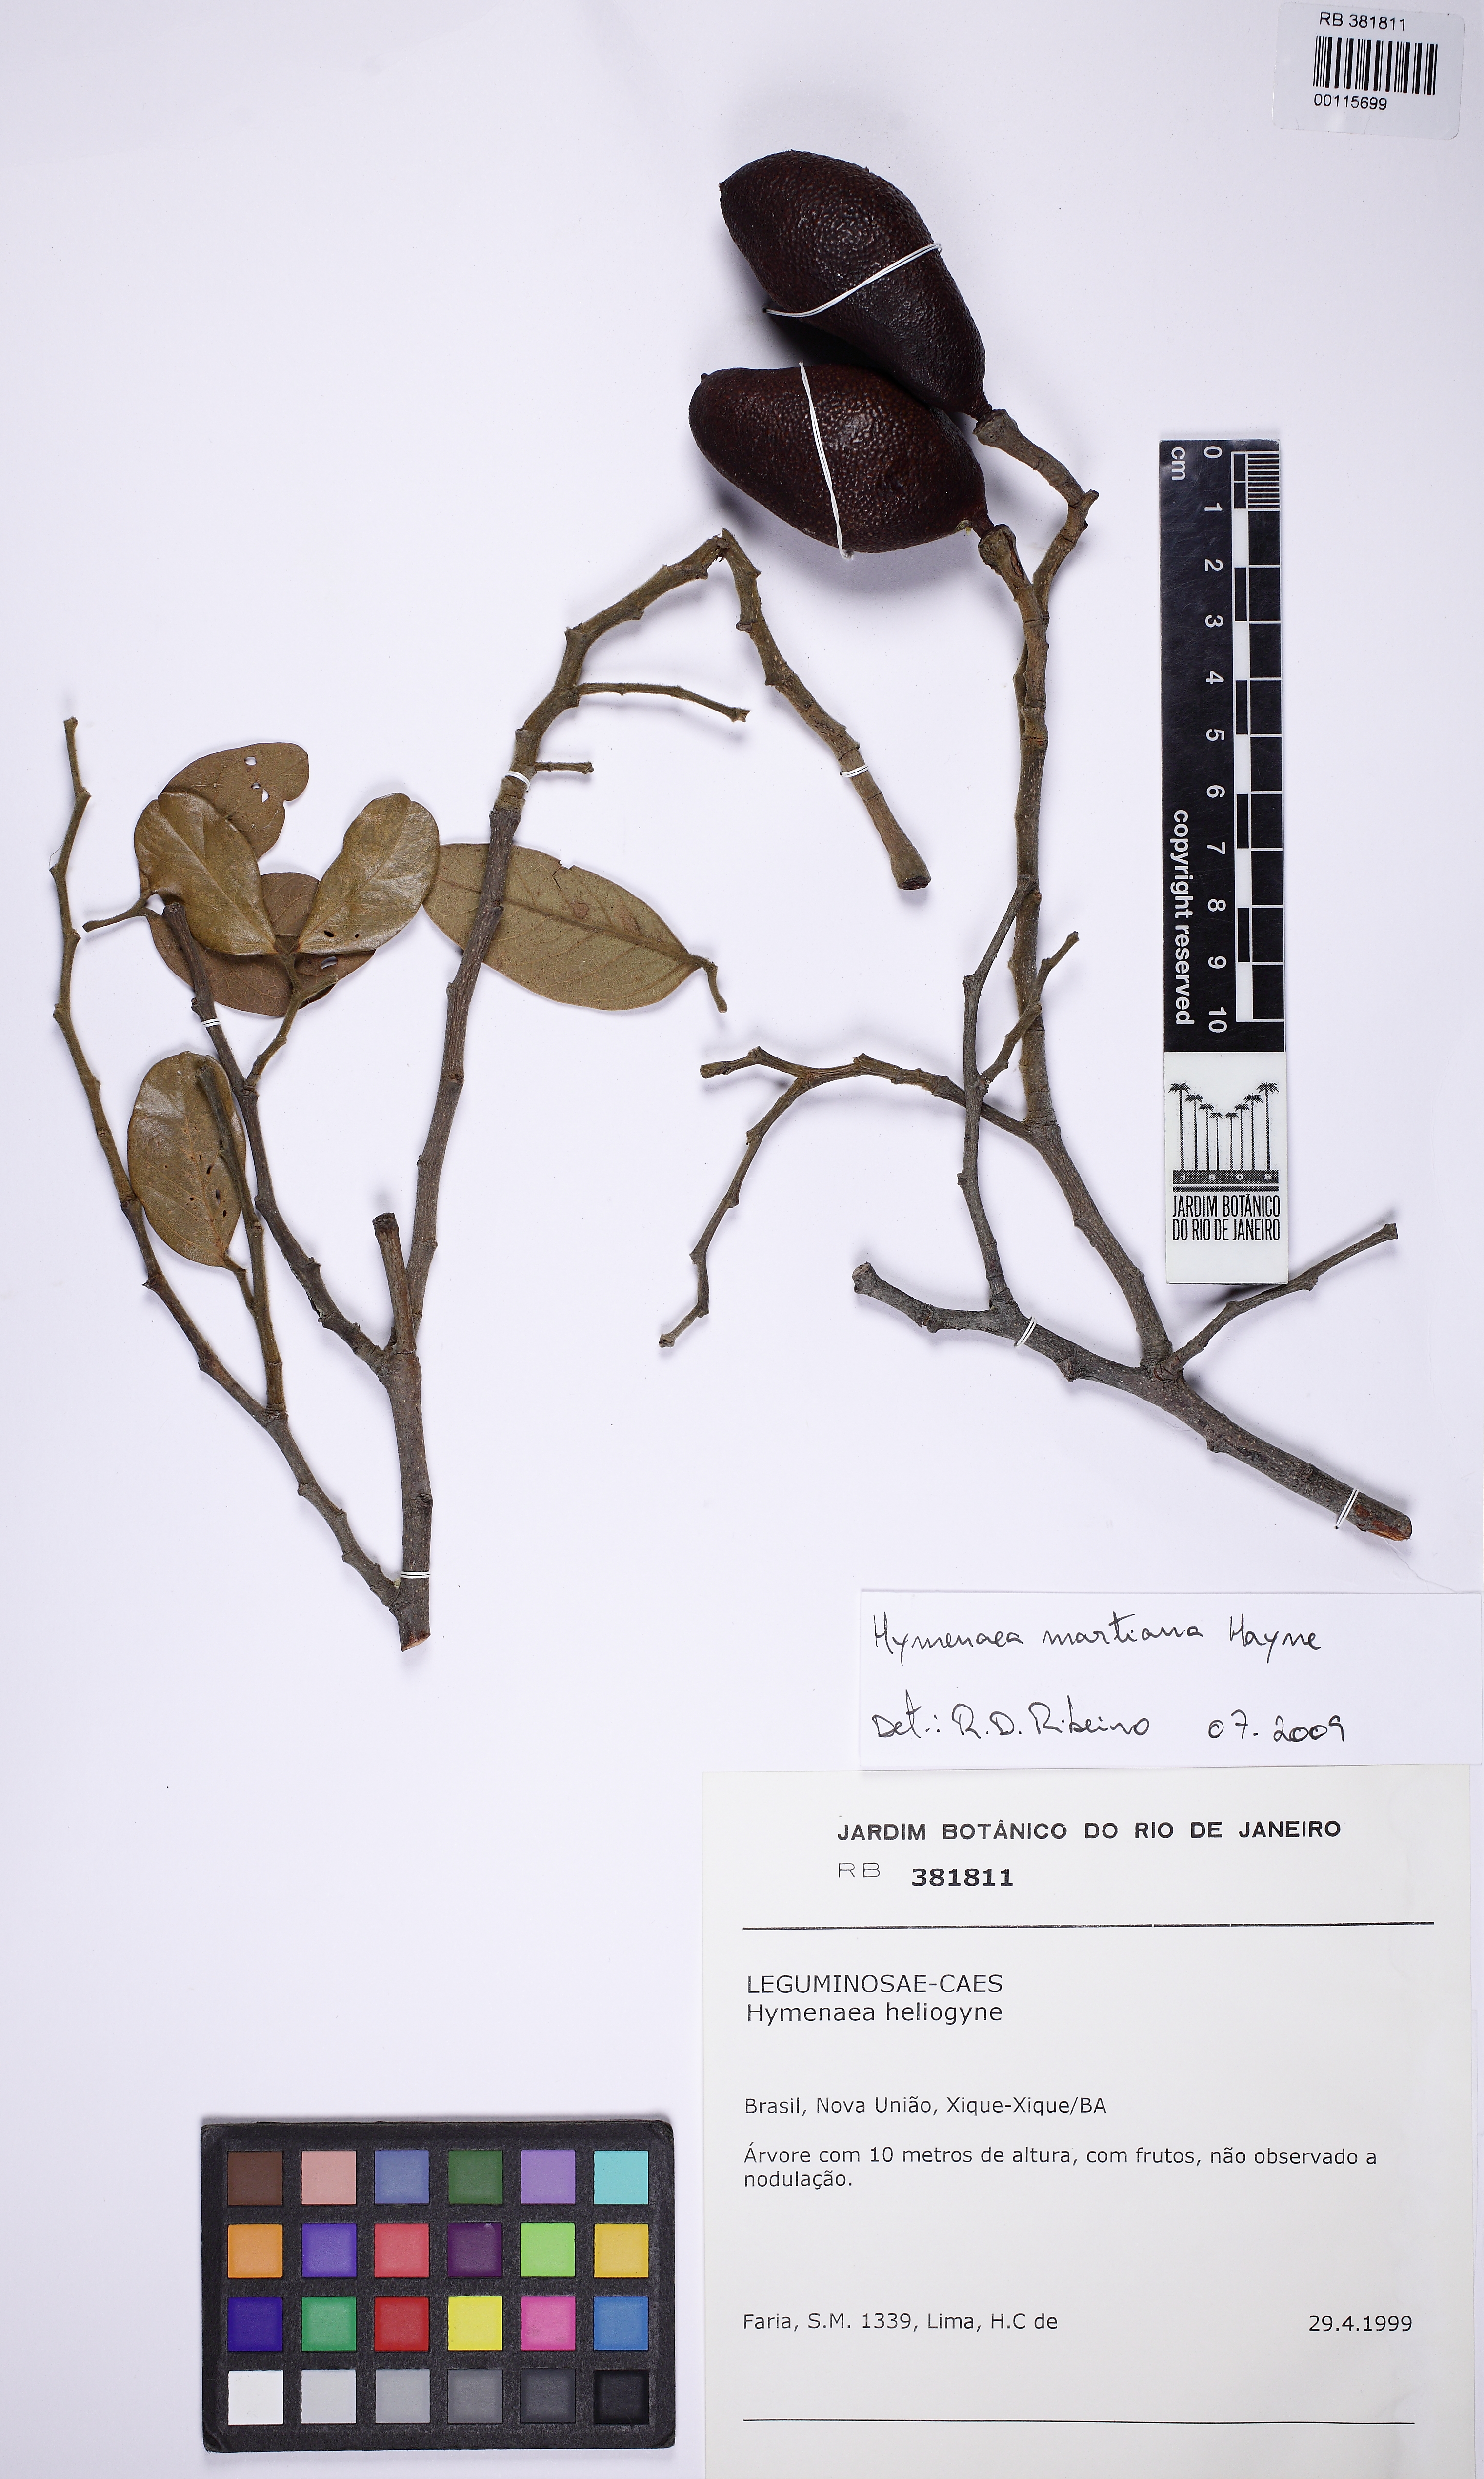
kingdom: Plantae
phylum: Tracheophyta
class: Magnoliopsida
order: Fabales
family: Fabaceae
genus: Hymenaea
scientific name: Hymenaea martiana
